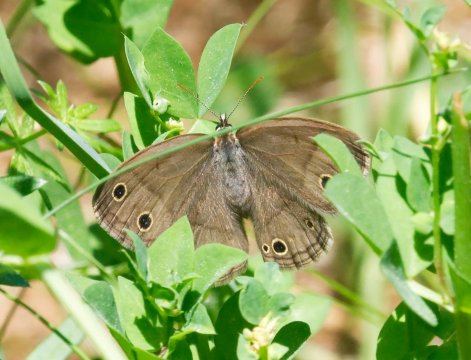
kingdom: Animalia
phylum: Arthropoda
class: Insecta
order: Lepidoptera
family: Nymphalidae
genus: Euptychia
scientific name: Euptychia cymela
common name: Little Wood Satyr
